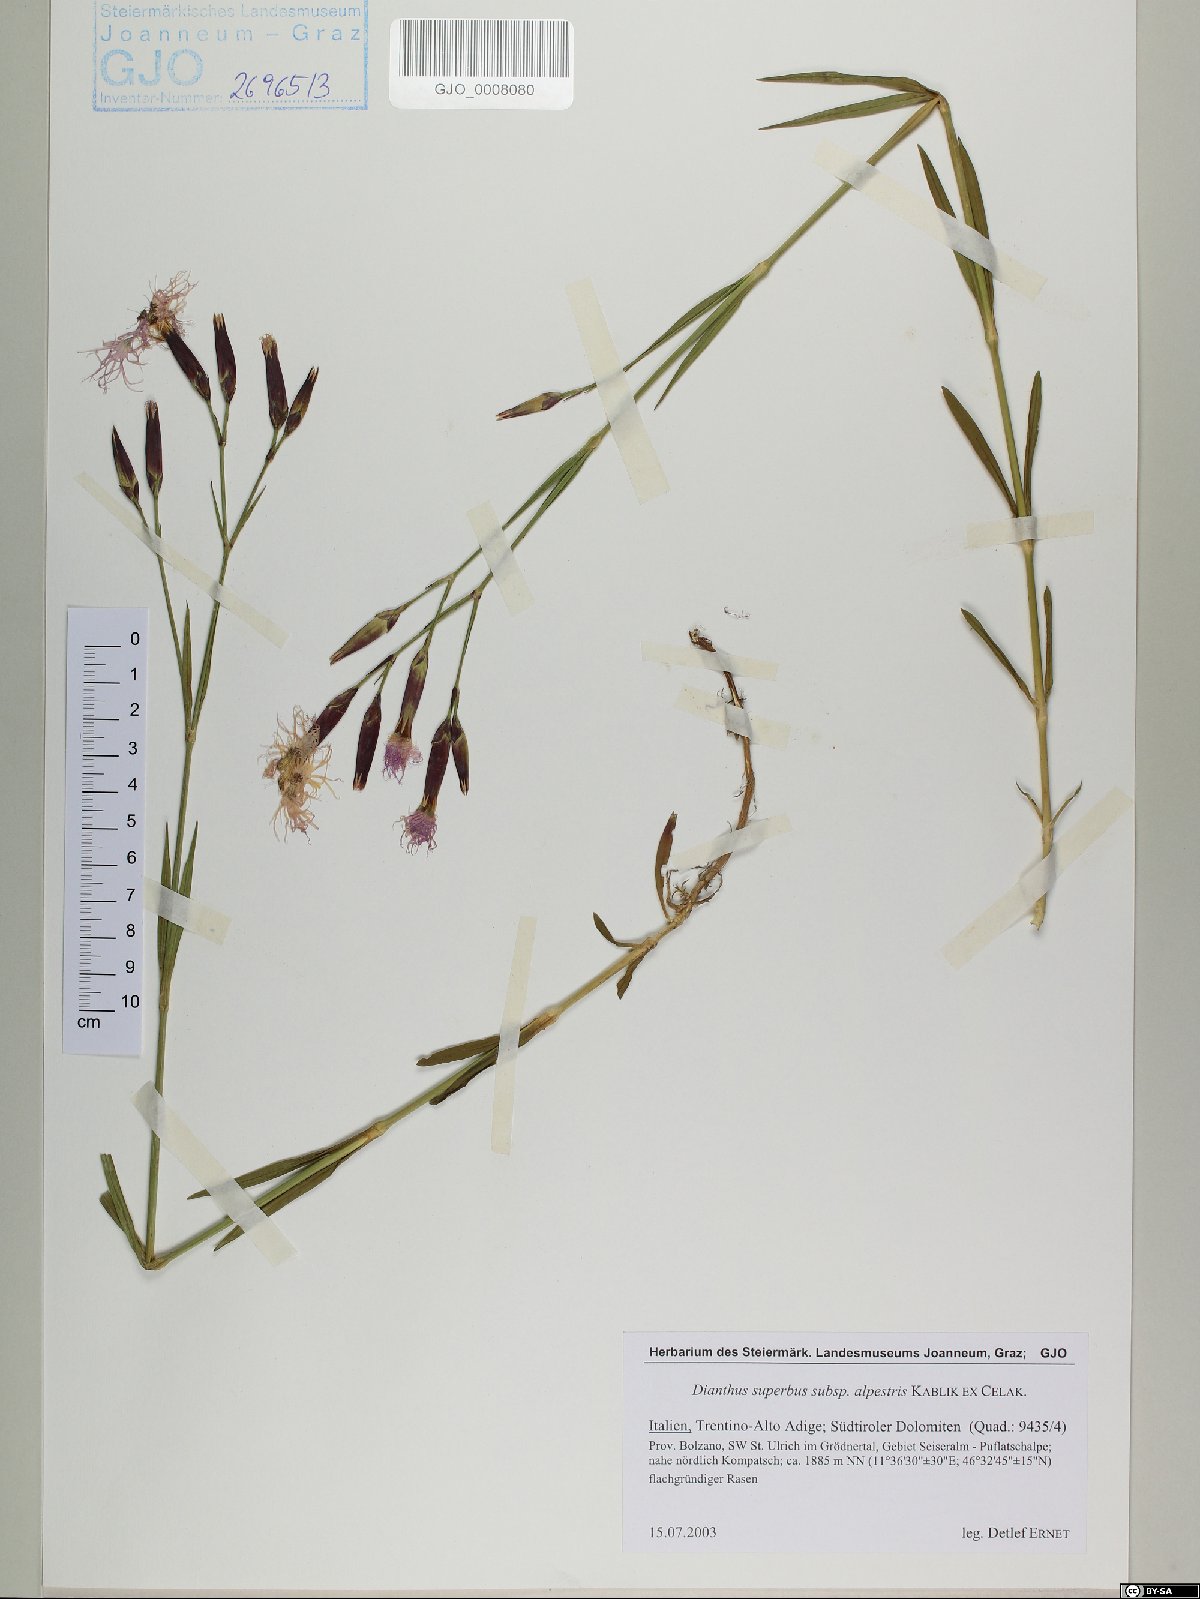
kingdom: Plantae
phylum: Tracheophyta
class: Magnoliopsida
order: Caryophyllales
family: Caryophyllaceae
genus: Dianthus
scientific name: Dianthus superbus
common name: Fringed pink
